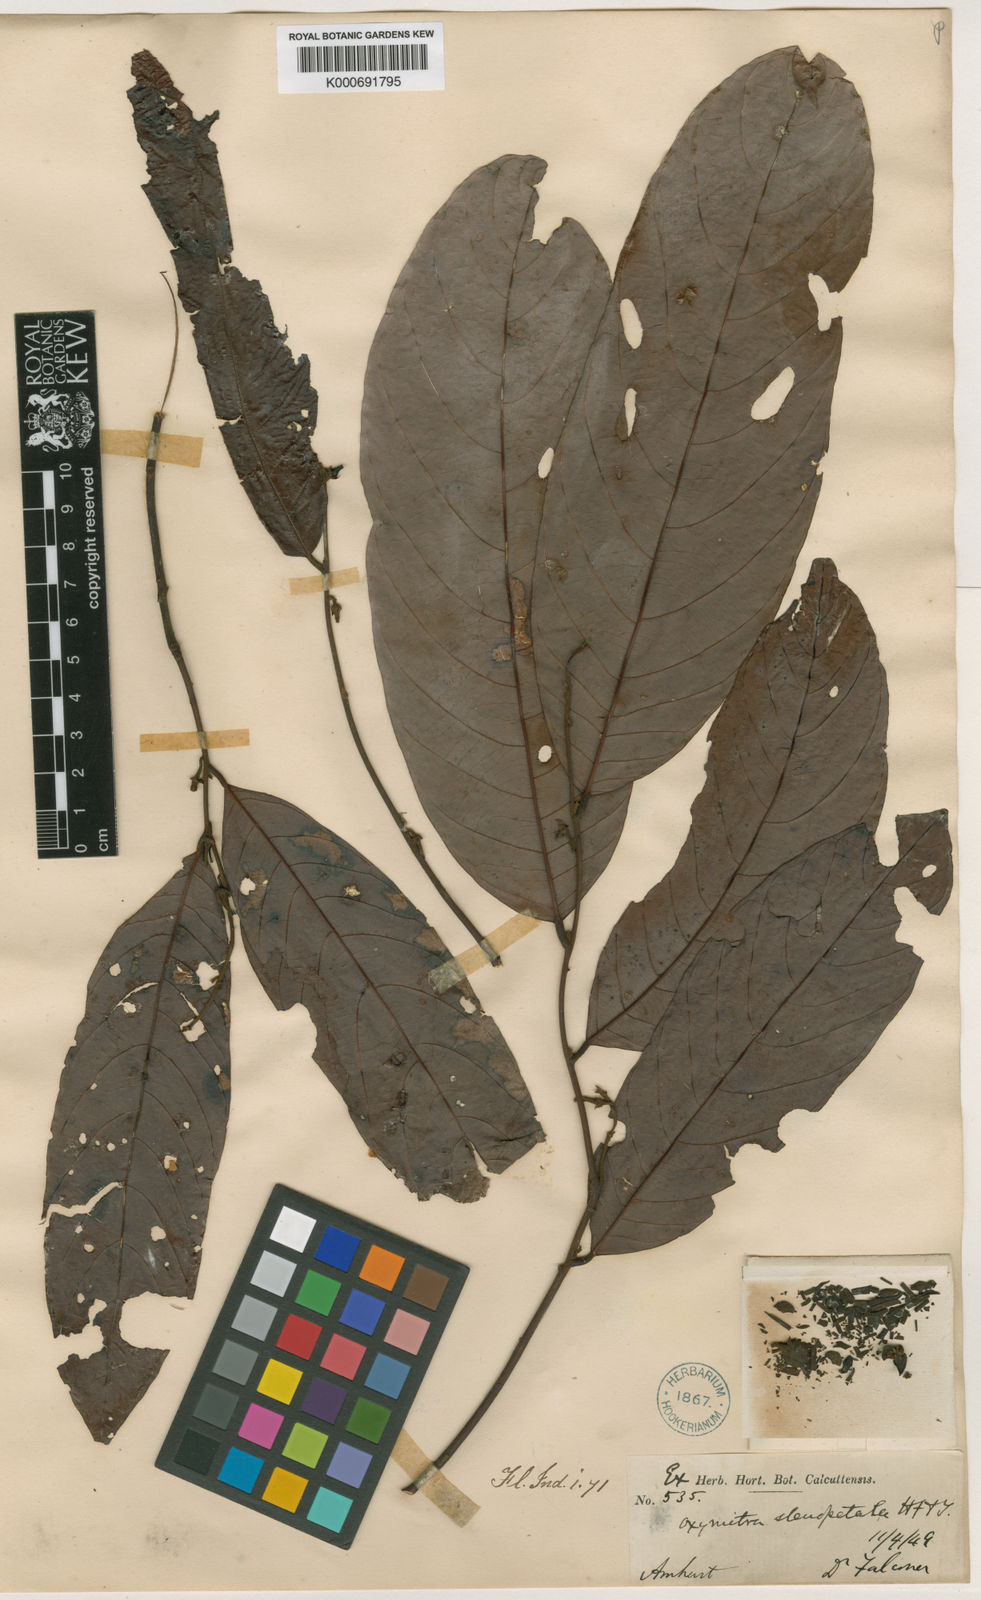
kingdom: Plantae
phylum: Tracheophyta
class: Magnoliopsida
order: Magnoliales
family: Annonaceae
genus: Friesodielsia
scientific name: Friesodielsia stenopetala
